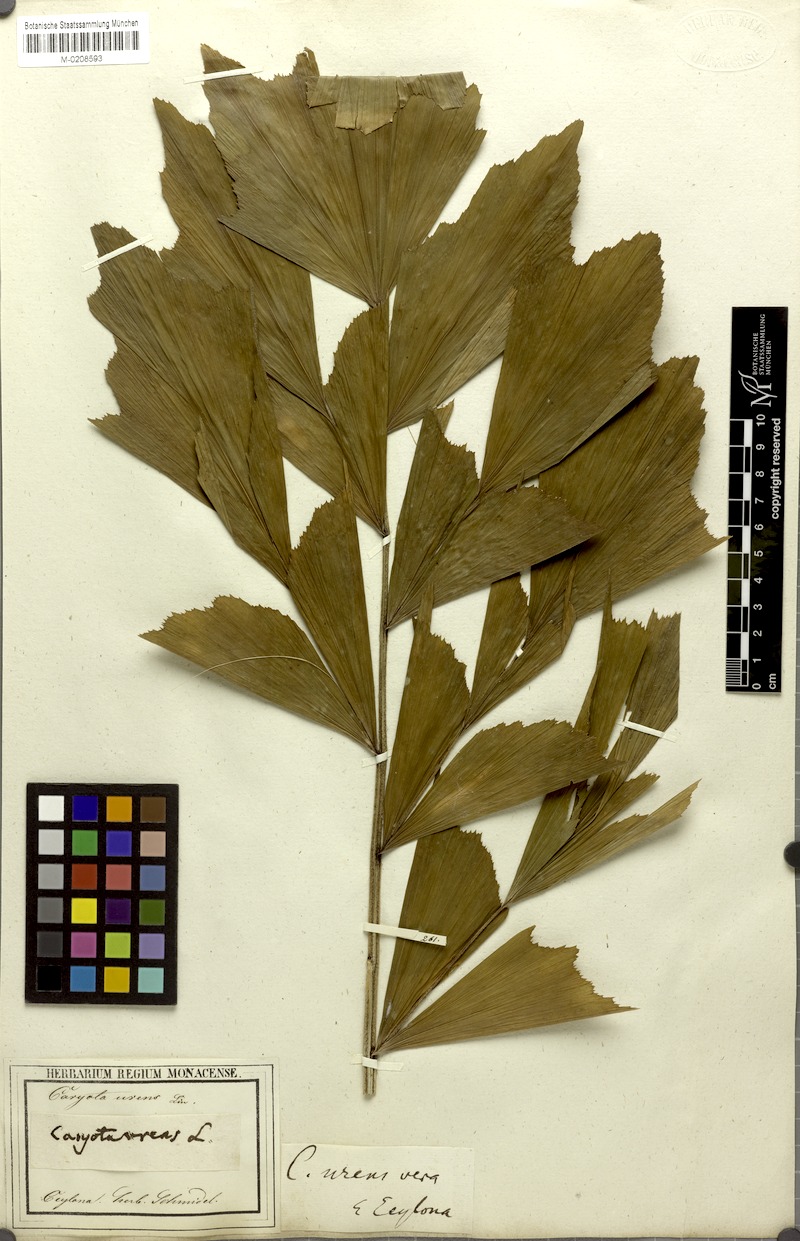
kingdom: Plantae
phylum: Tracheophyta
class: Liliopsida
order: Arecales
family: Arecaceae
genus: Caryota
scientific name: Caryota urens
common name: Jaggery palm
